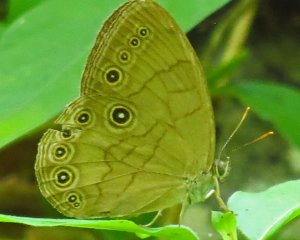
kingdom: Animalia
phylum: Arthropoda
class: Insecta
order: Lepidoptera
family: Nymphalidae
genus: Lethe
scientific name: Lethe eurydice
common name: Appalachian Eyed Brown
